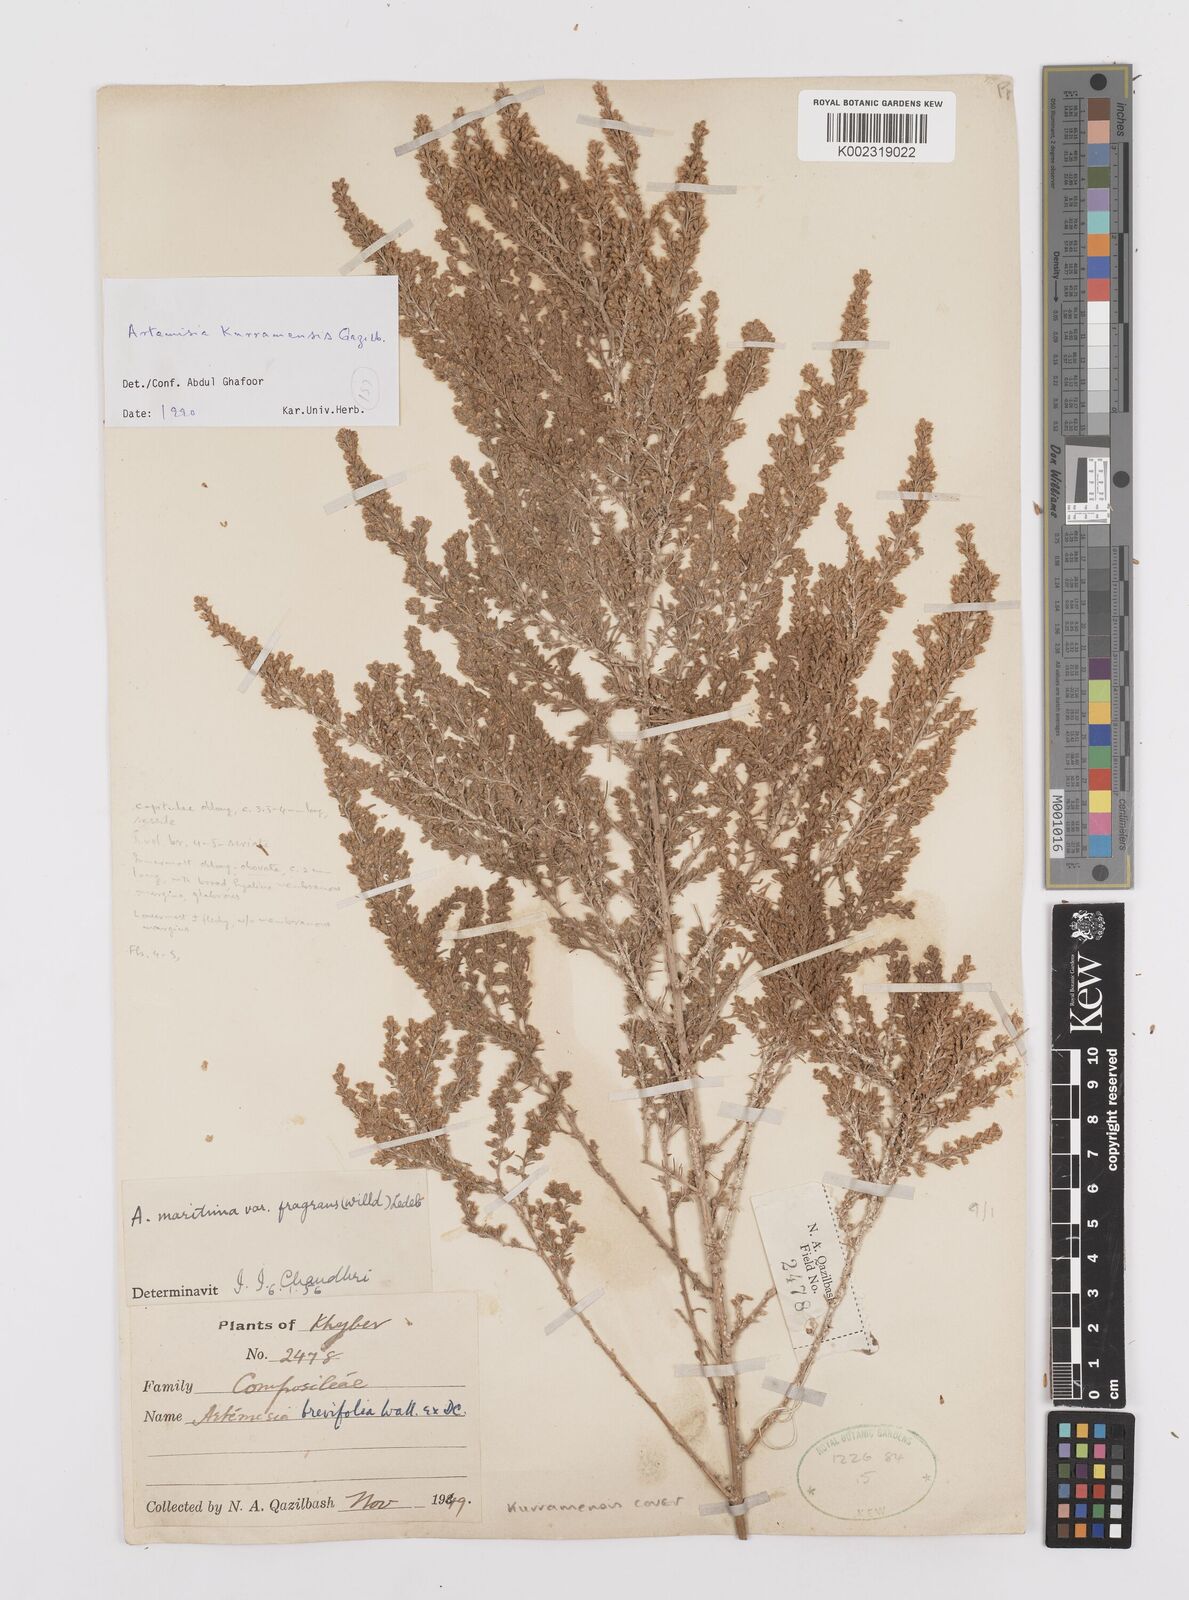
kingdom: Plantae
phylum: Tracheophyta
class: Magnoliopsida
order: Asterales
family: Asteraceae
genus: Artemisia
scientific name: Artemisia kurramensis
